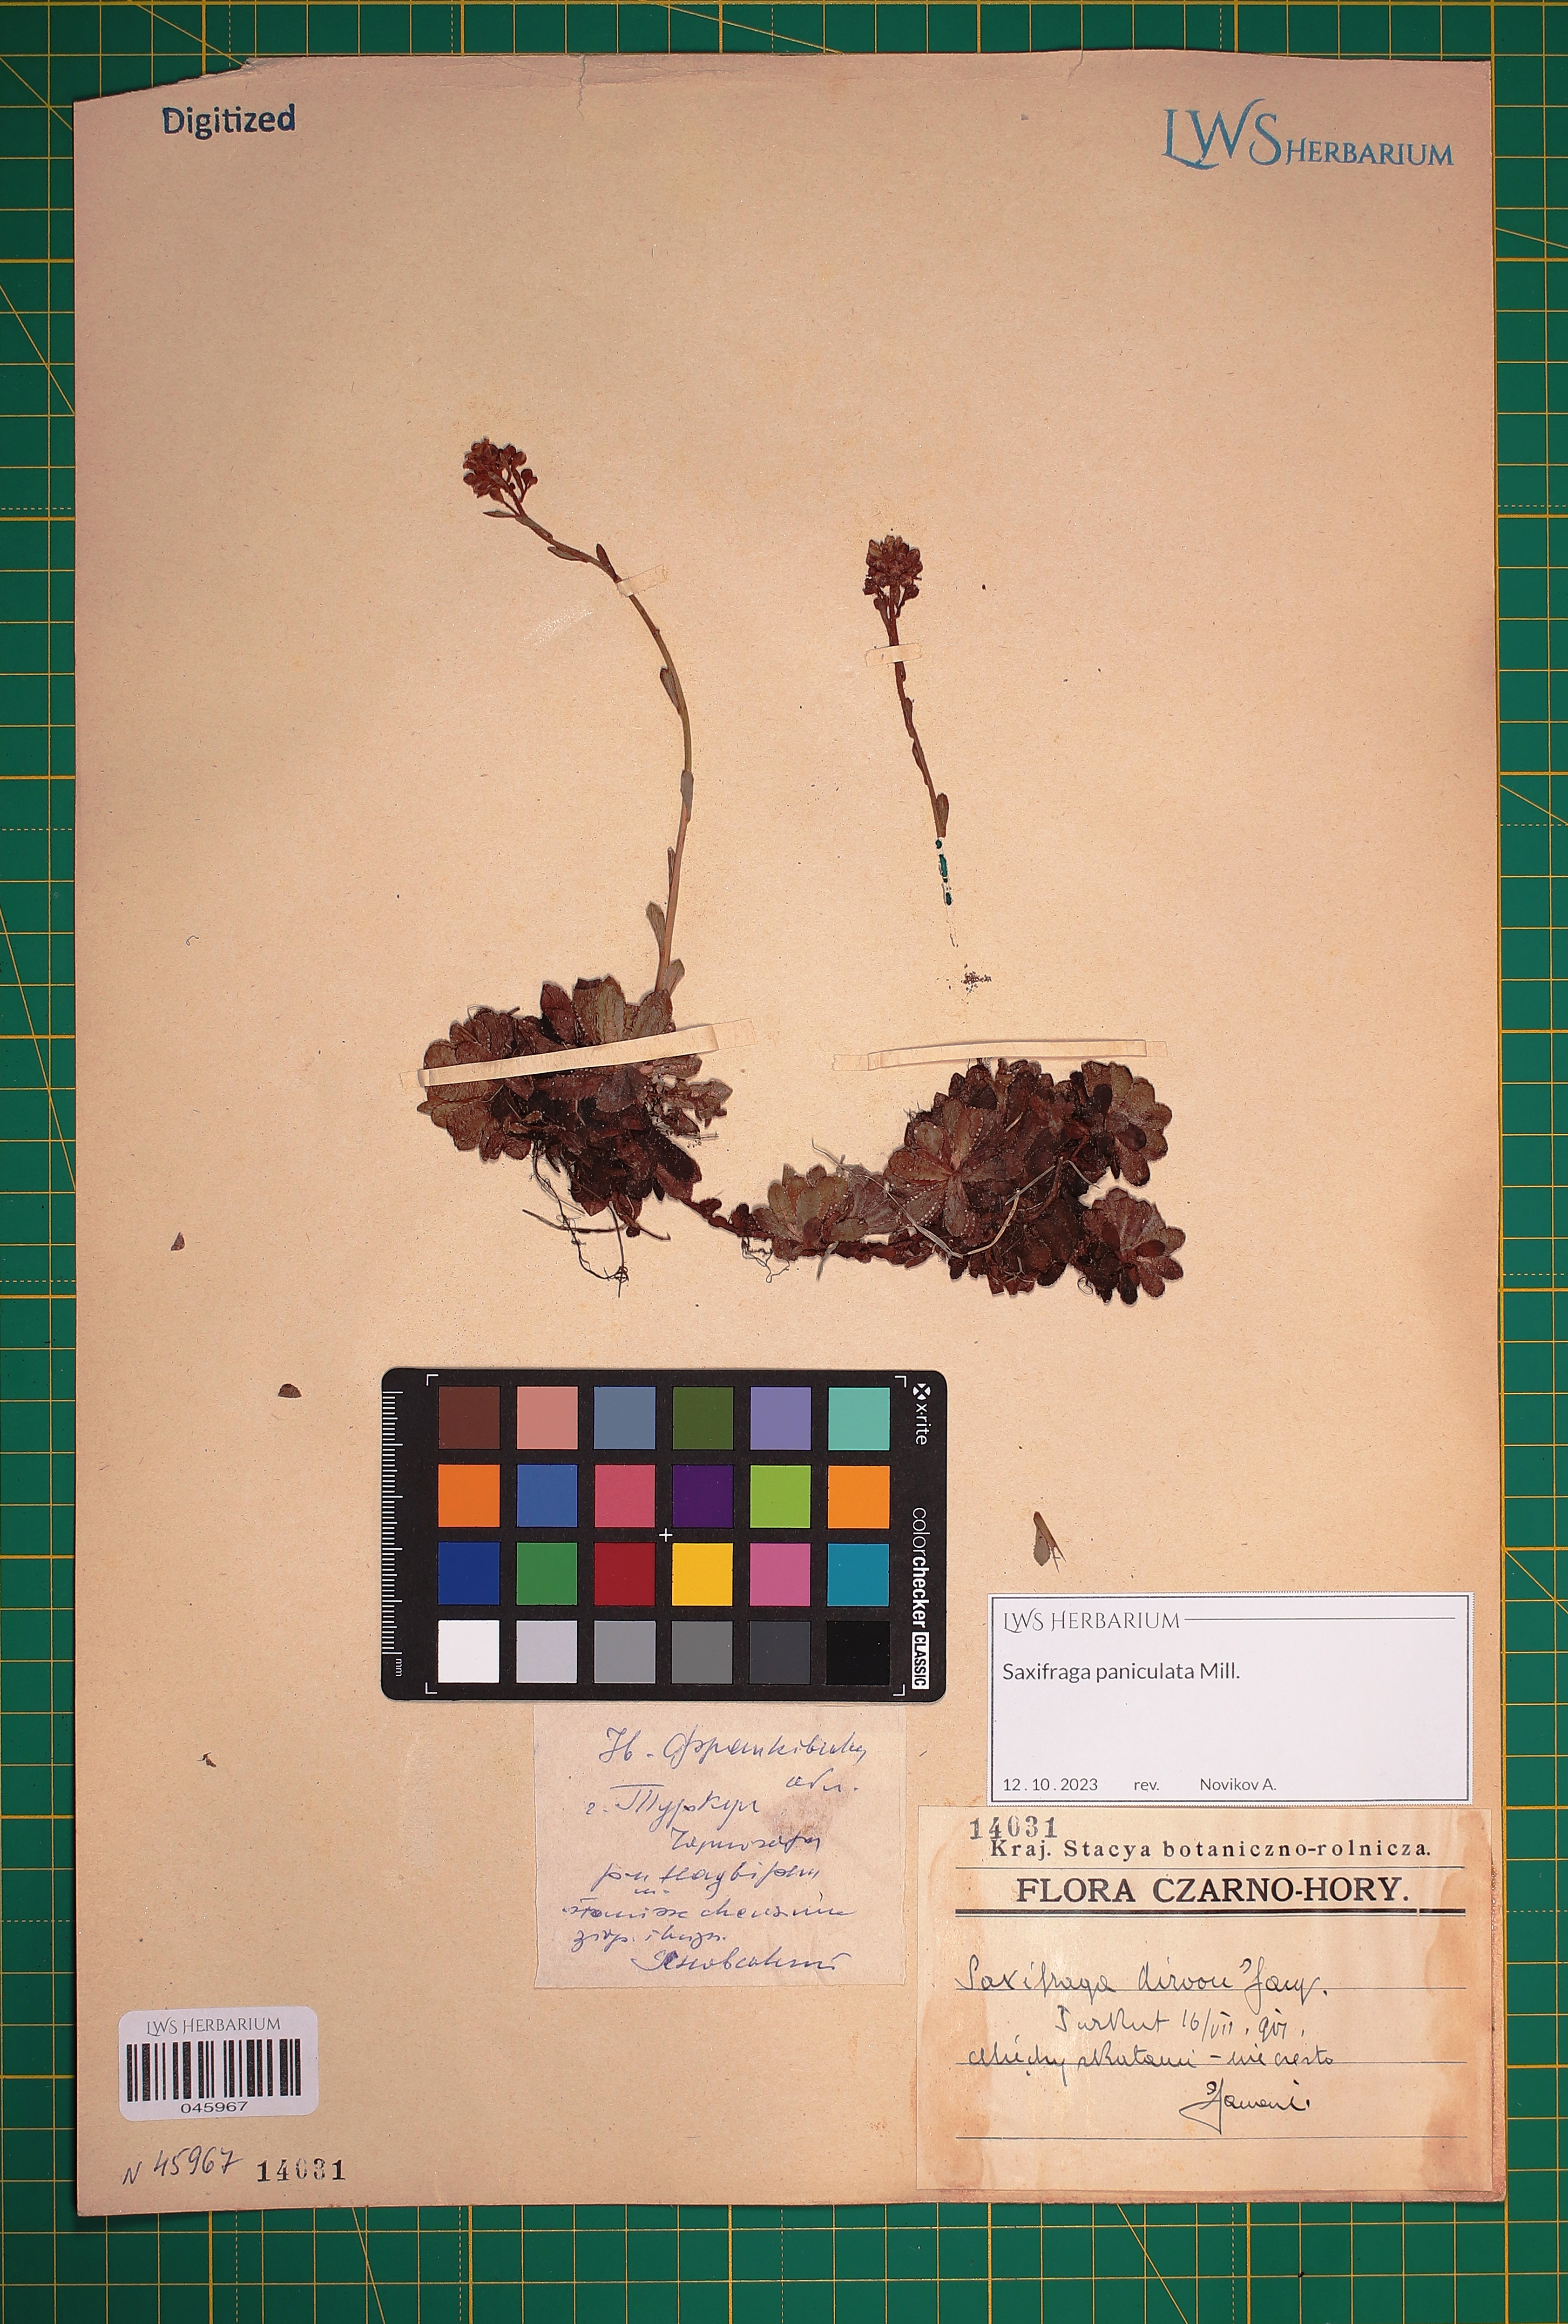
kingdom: Plantae
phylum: Tracheophyta
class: Magnoliopsida
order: Saxifragales
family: Saxifragaceae
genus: Saxifraga
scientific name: Saxifraga paniculata
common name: Livelong saxifrage
